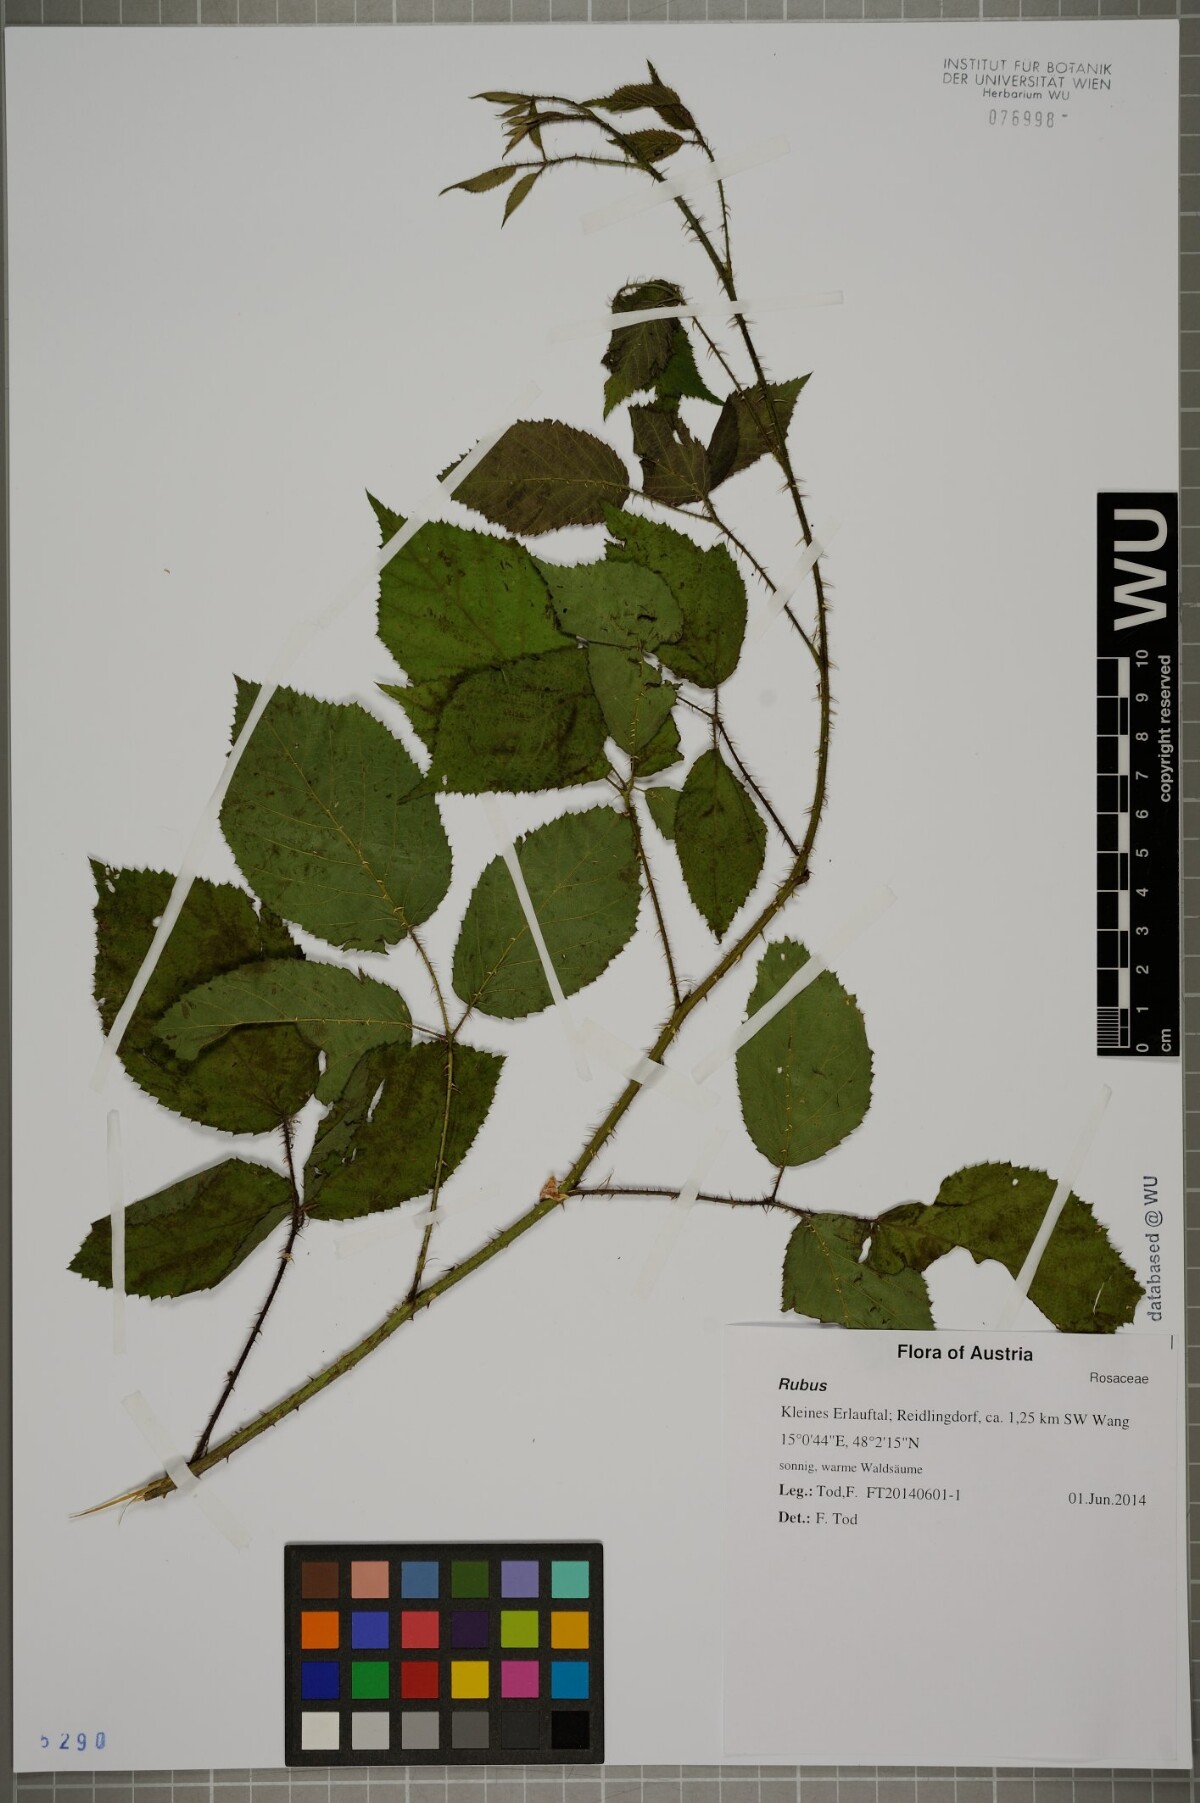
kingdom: Plantae
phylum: Tracheophyta
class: Magnoliopsida
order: Rosales
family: Rosaceae
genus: Rubus
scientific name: Rubus
